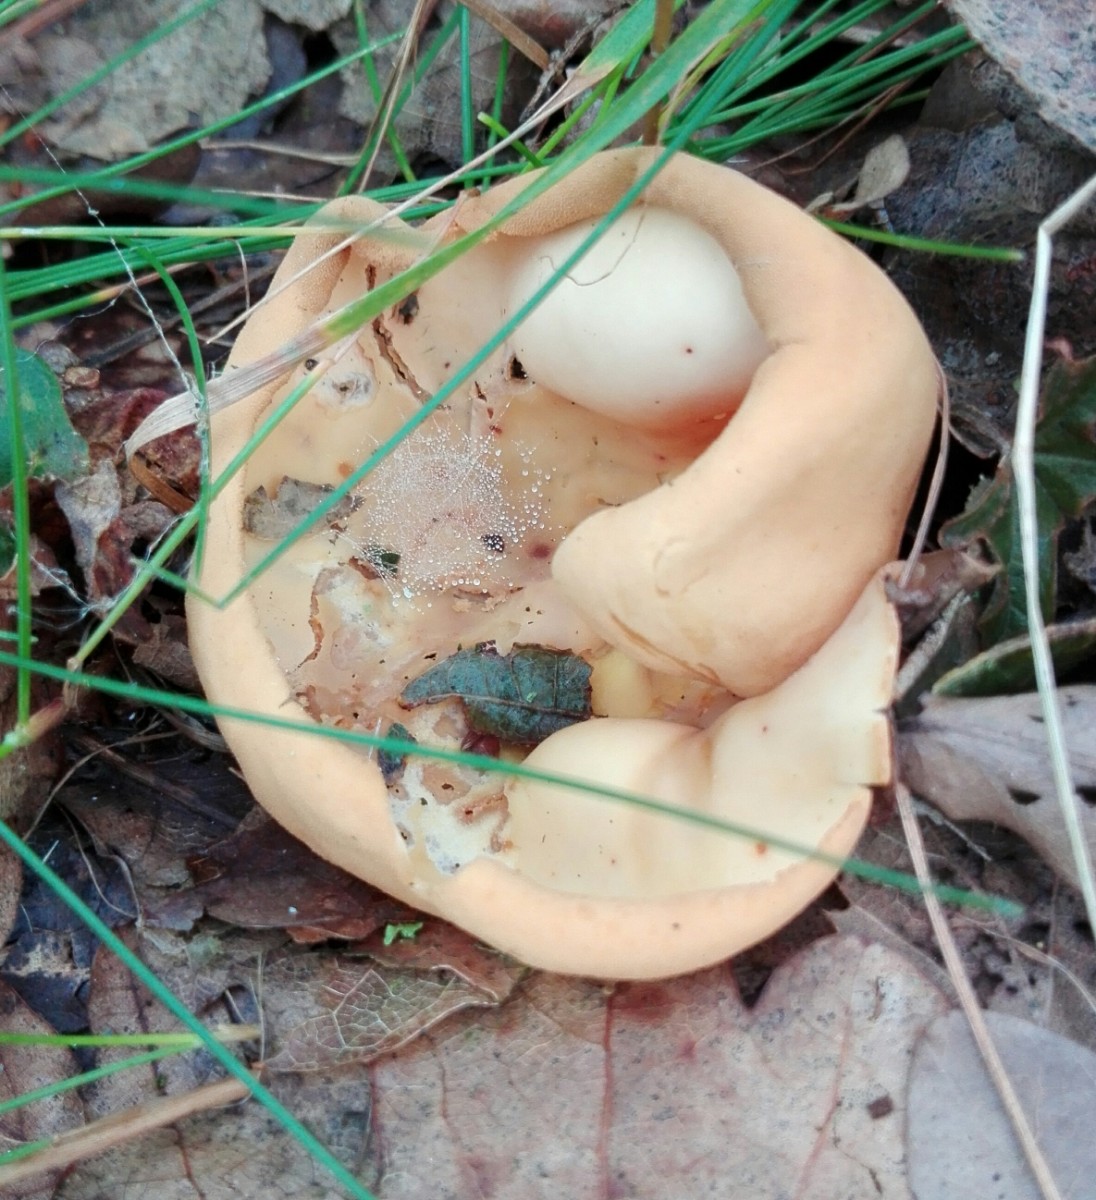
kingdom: Fungi
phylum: Ascomycota
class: Pezizomycetes
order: Pezizales
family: Otideaceae
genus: Otidea
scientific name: Otidea onotica
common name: æsel-ørebæger
